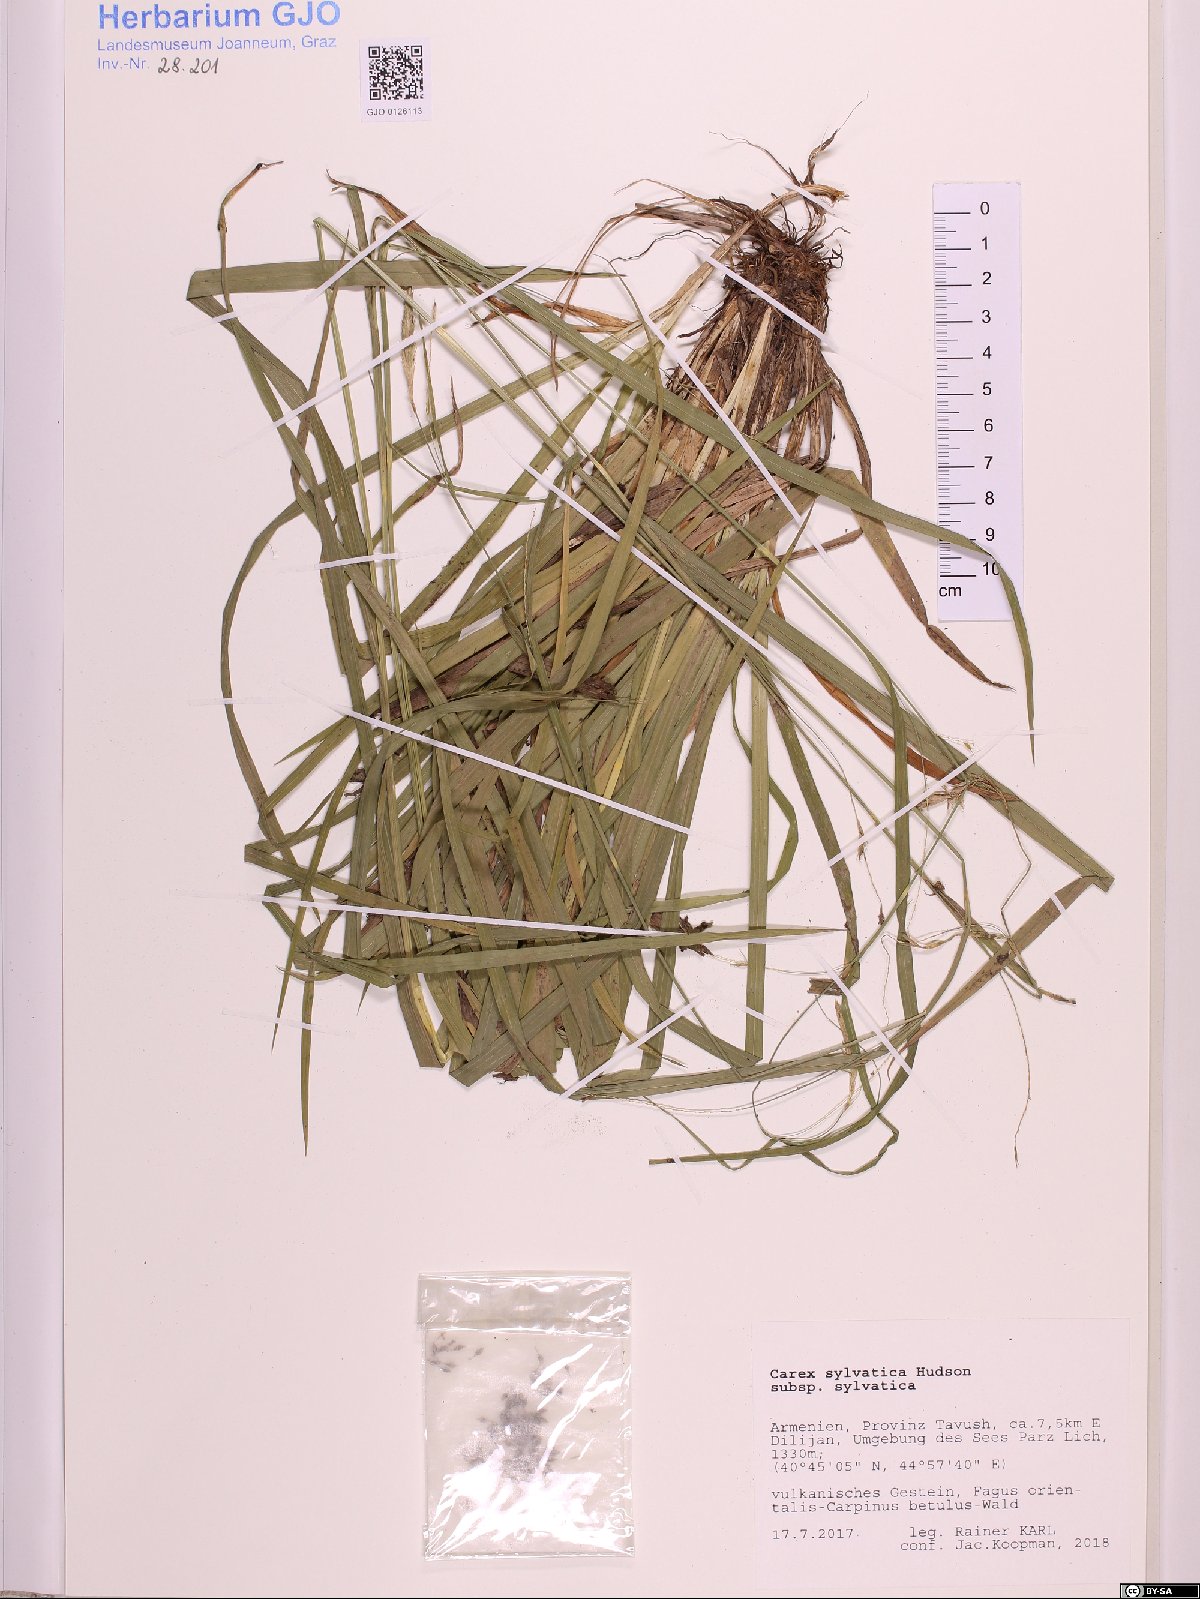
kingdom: Plantae
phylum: Tracheophyta
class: Liliopsida
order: Poales
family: Cyperaceae
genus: Carex
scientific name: Carex sylvatica
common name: Wood-sedge
